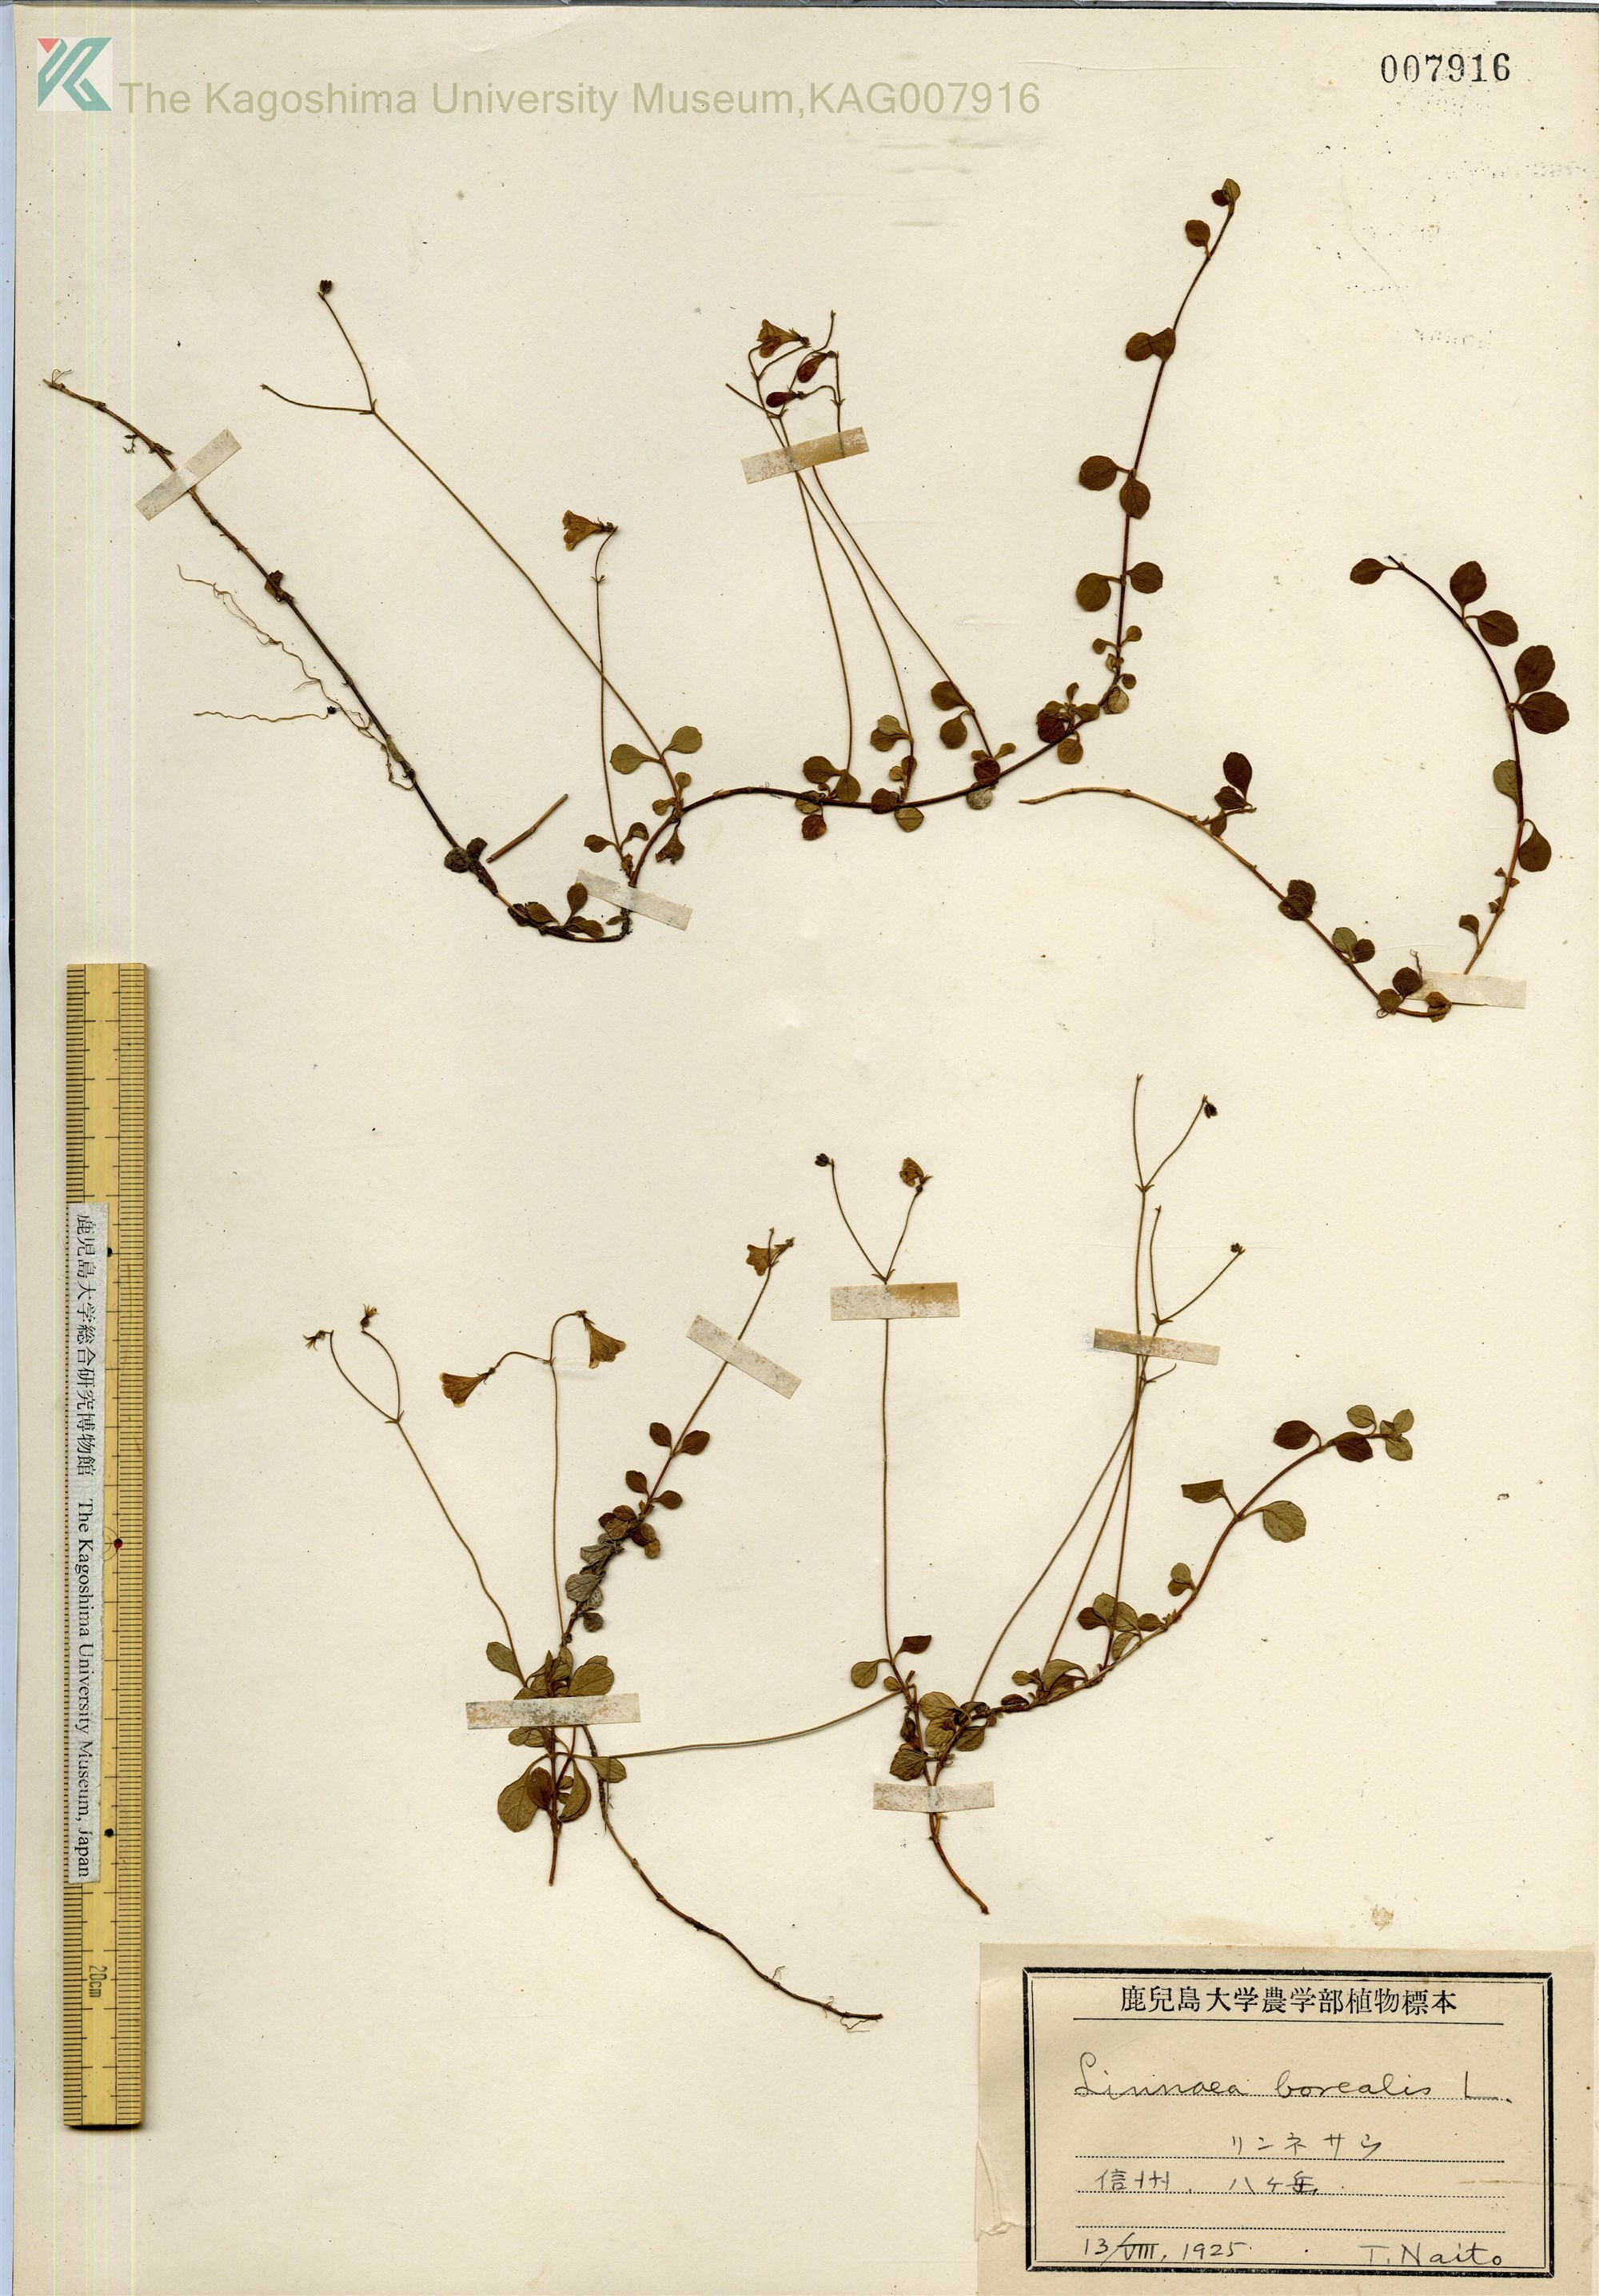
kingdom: Plantae
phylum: Tracheophyta
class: Magnoliopsida
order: Dipsacales
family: Caprifoliaceae
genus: Linnaea
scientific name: Linnaea borealis
